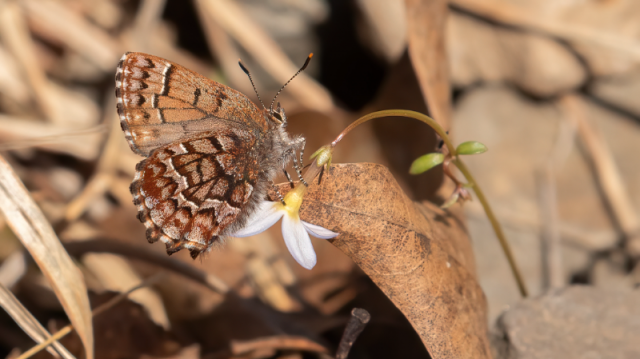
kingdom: Animalia
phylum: Arthropoda
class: Insecta
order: Lepidoptera
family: Lycaenidae
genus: Incisalia
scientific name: Incisalia niphon
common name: Eastern Pine Elfin
